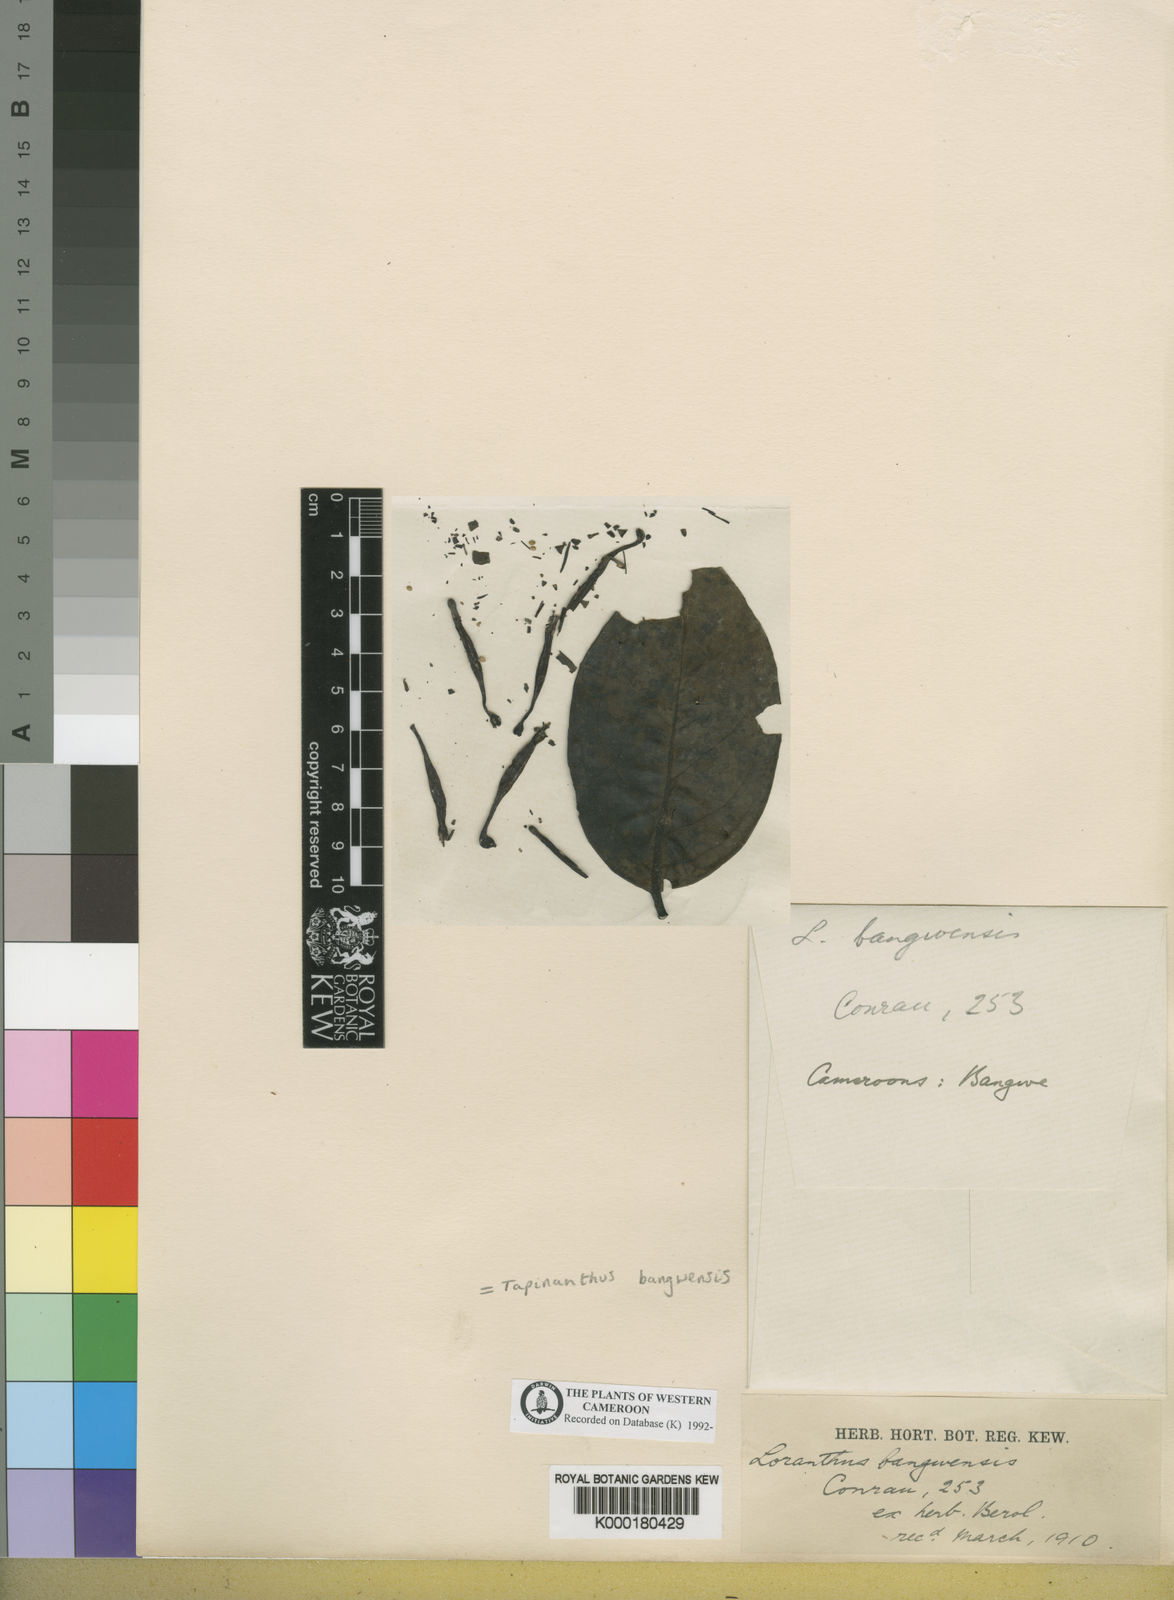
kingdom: Plantae
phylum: Tracheophyta
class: Magnoliopsida
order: Santalales
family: Loranthaceae
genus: Tapinanthus
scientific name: Tapinanthus bangwensis
